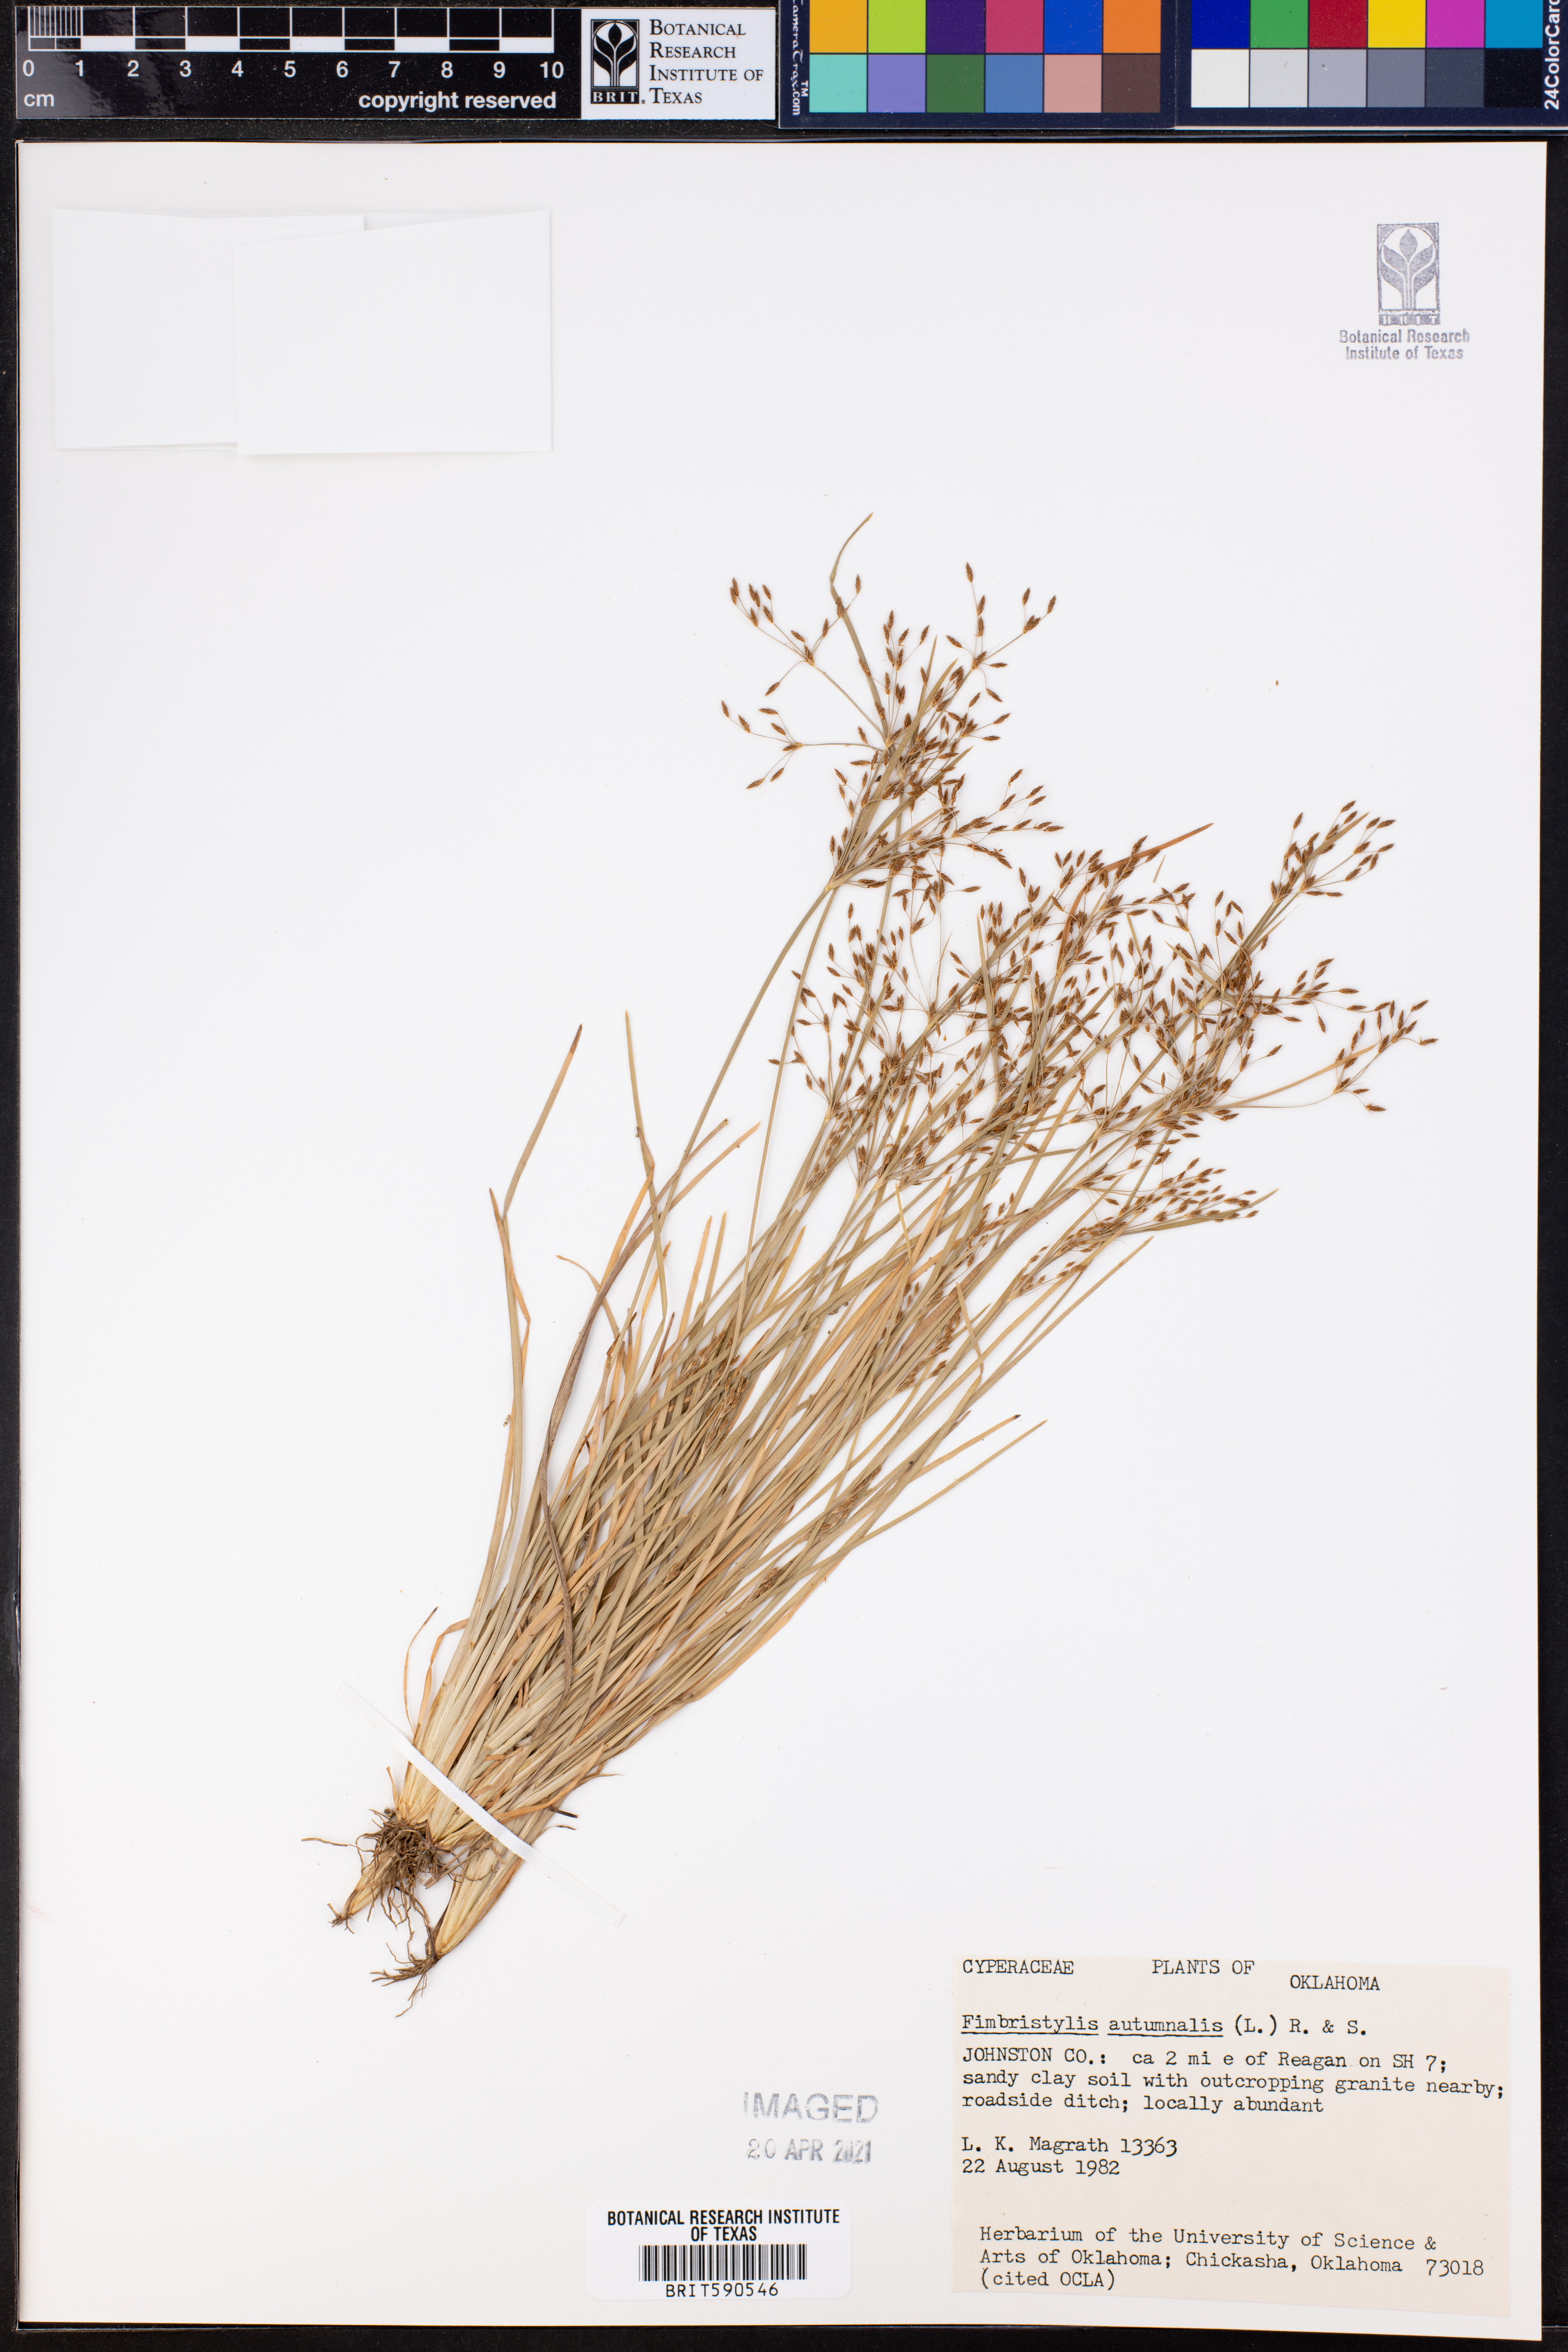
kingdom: Plantae
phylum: Tracheophyta
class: Liliopsida
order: Poales
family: Cyperaceae
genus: Fimbristylis
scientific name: Fimbristylis autumnalis
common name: Slender fimbristylis
